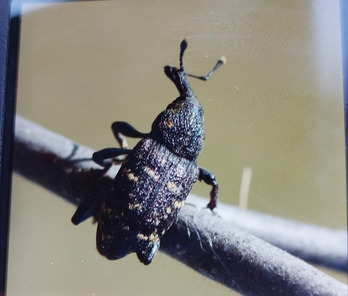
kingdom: Animalia
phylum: Arthropoda
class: Insecta
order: Coleoptera
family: Curculionidae
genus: Hylobius
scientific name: Hylobius abietis
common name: Stor nåletræsnudebille
